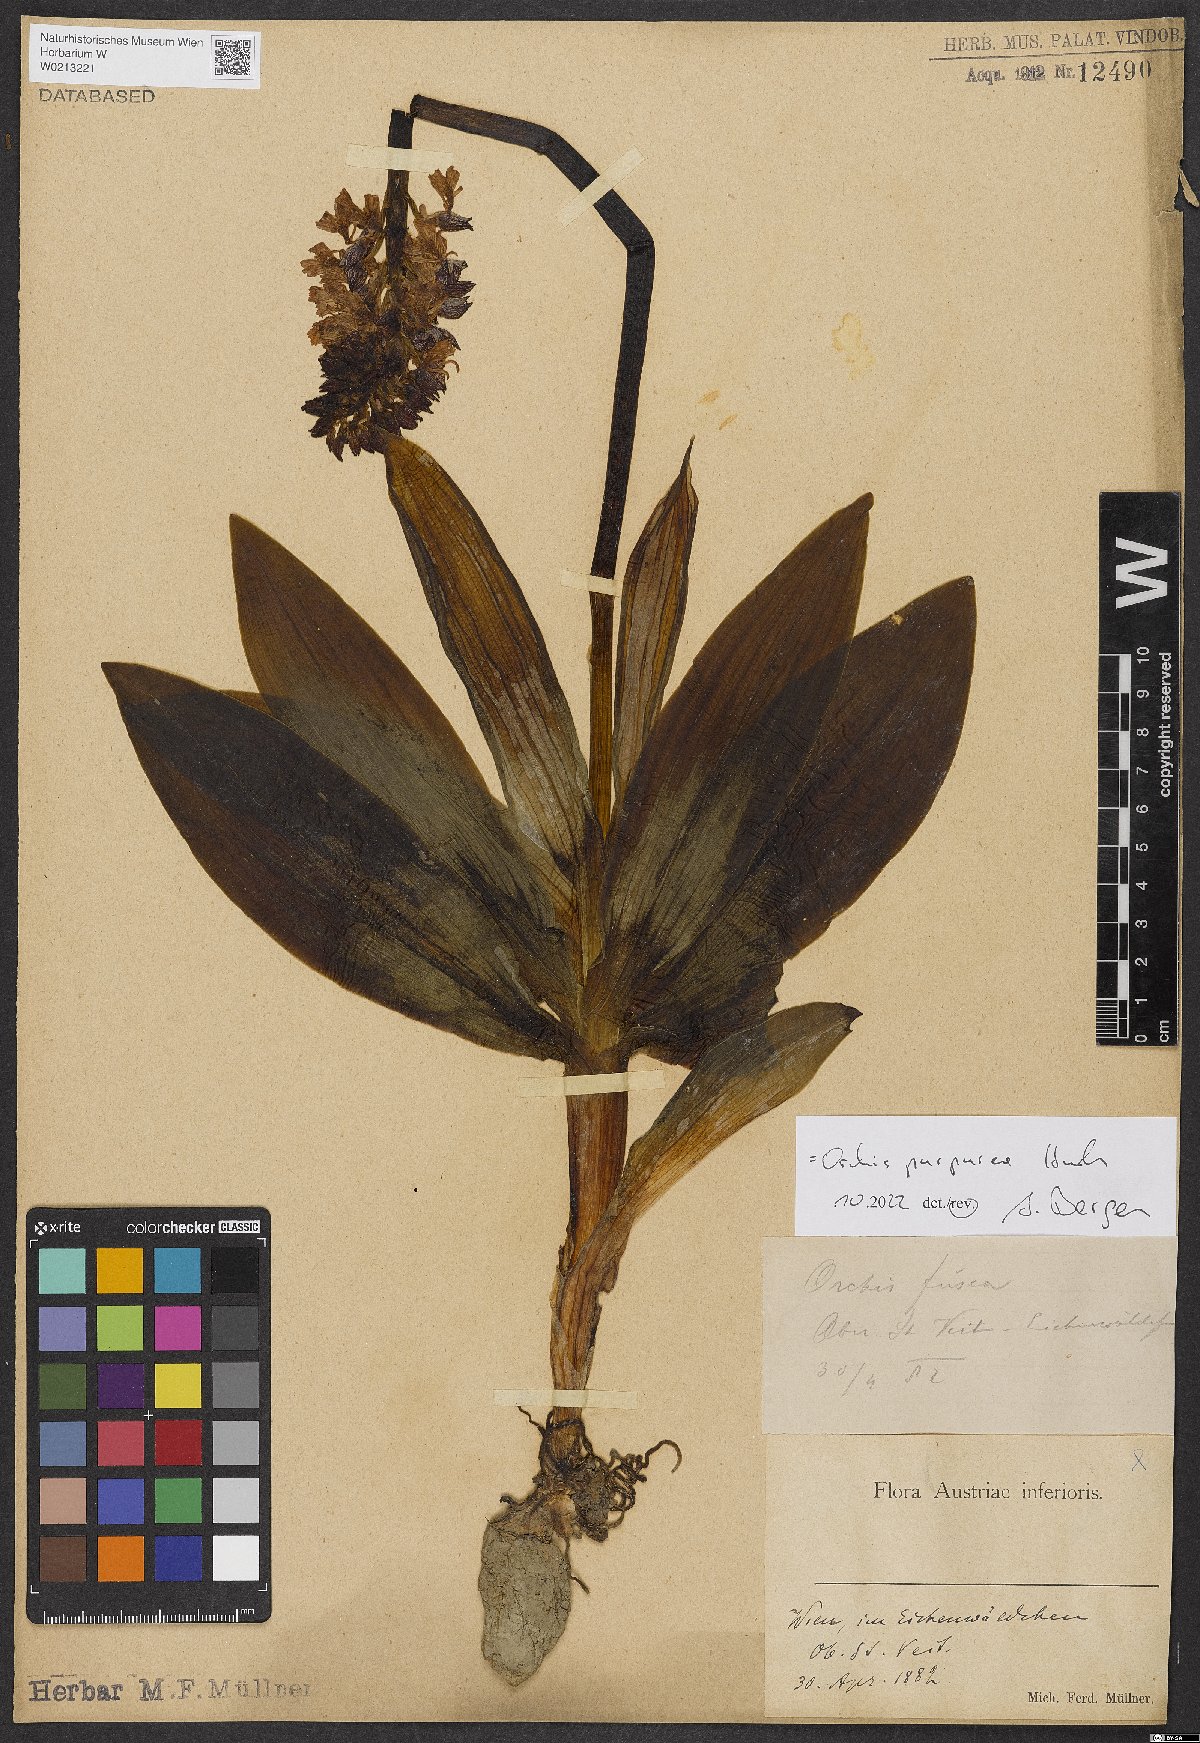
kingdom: Plantae
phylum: Tracheophyta
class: Liliopsida
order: Asparagales
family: Orchidaceae
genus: Orchis
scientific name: Orchis purpurea
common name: Lady orchid
